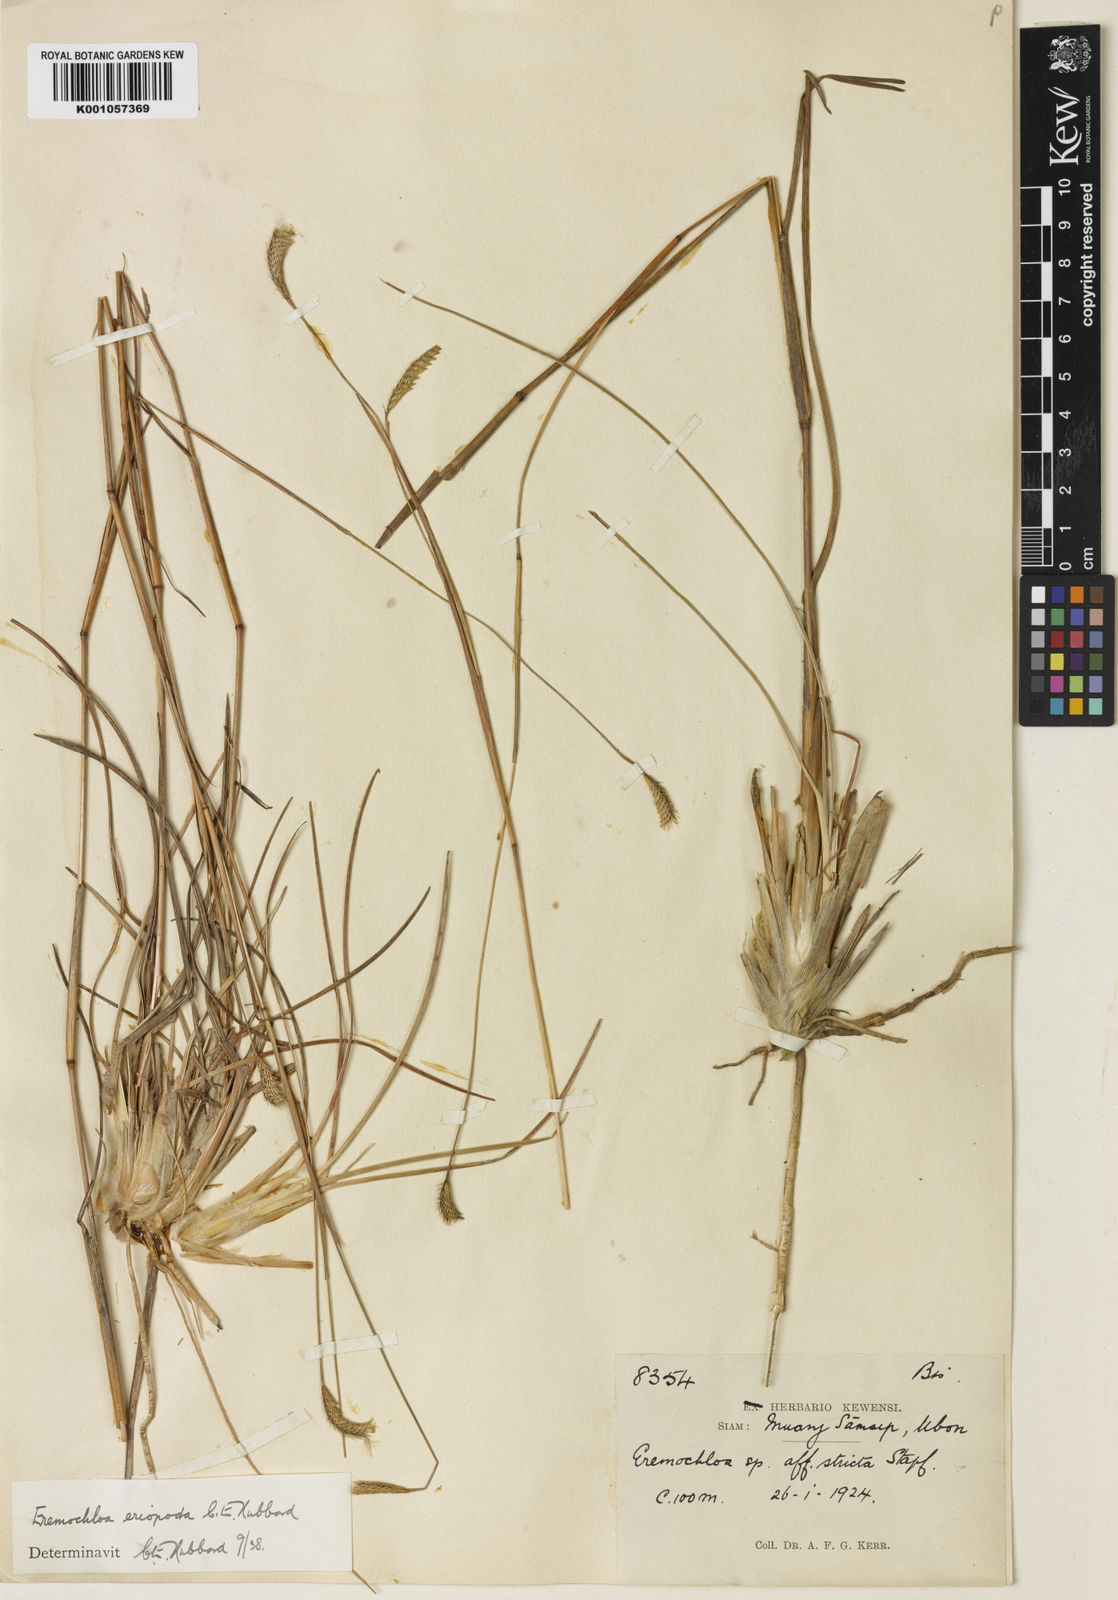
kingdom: Plantae
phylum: Tracheophyta
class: Liliopsida
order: Poales
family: Poaceae
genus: Eremochloa
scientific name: Eremochloa eriopoda
